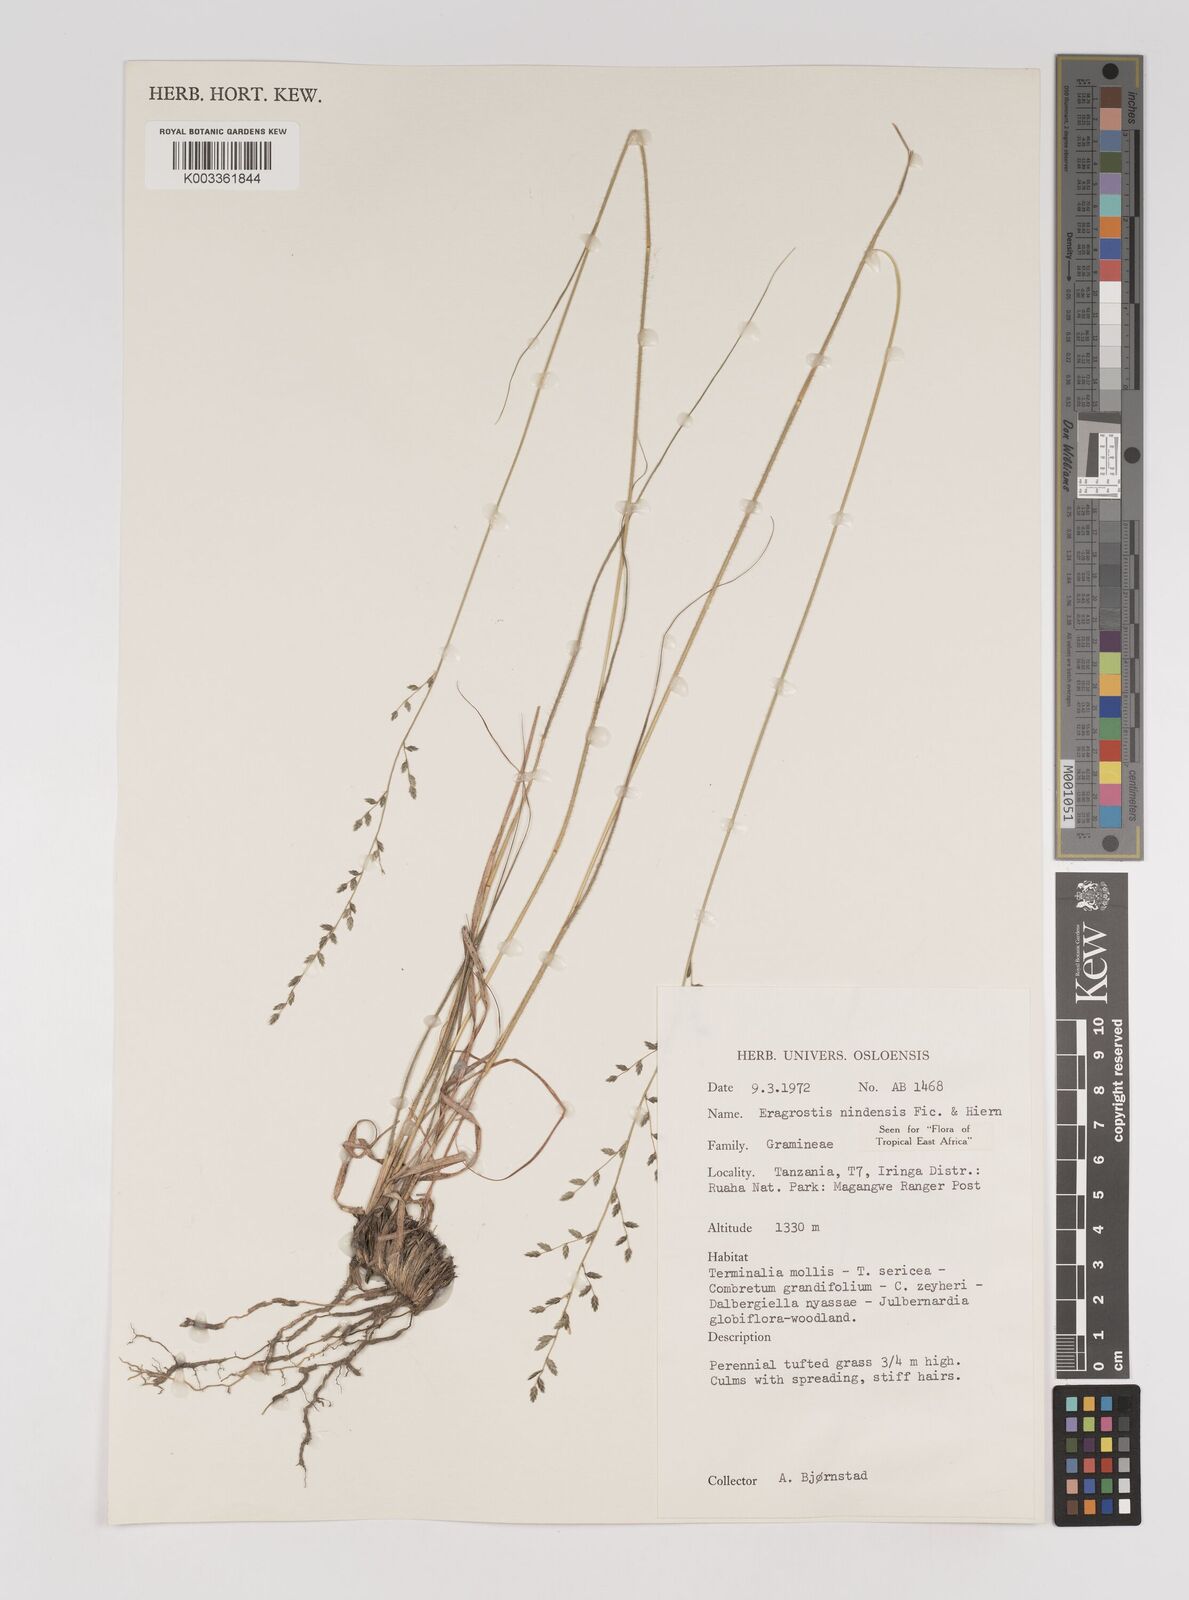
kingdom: Plantae
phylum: Tracheophyta
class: Liliopsida
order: Poales
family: Poaceae
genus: Eragrostis
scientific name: Eragrostis nindensis
